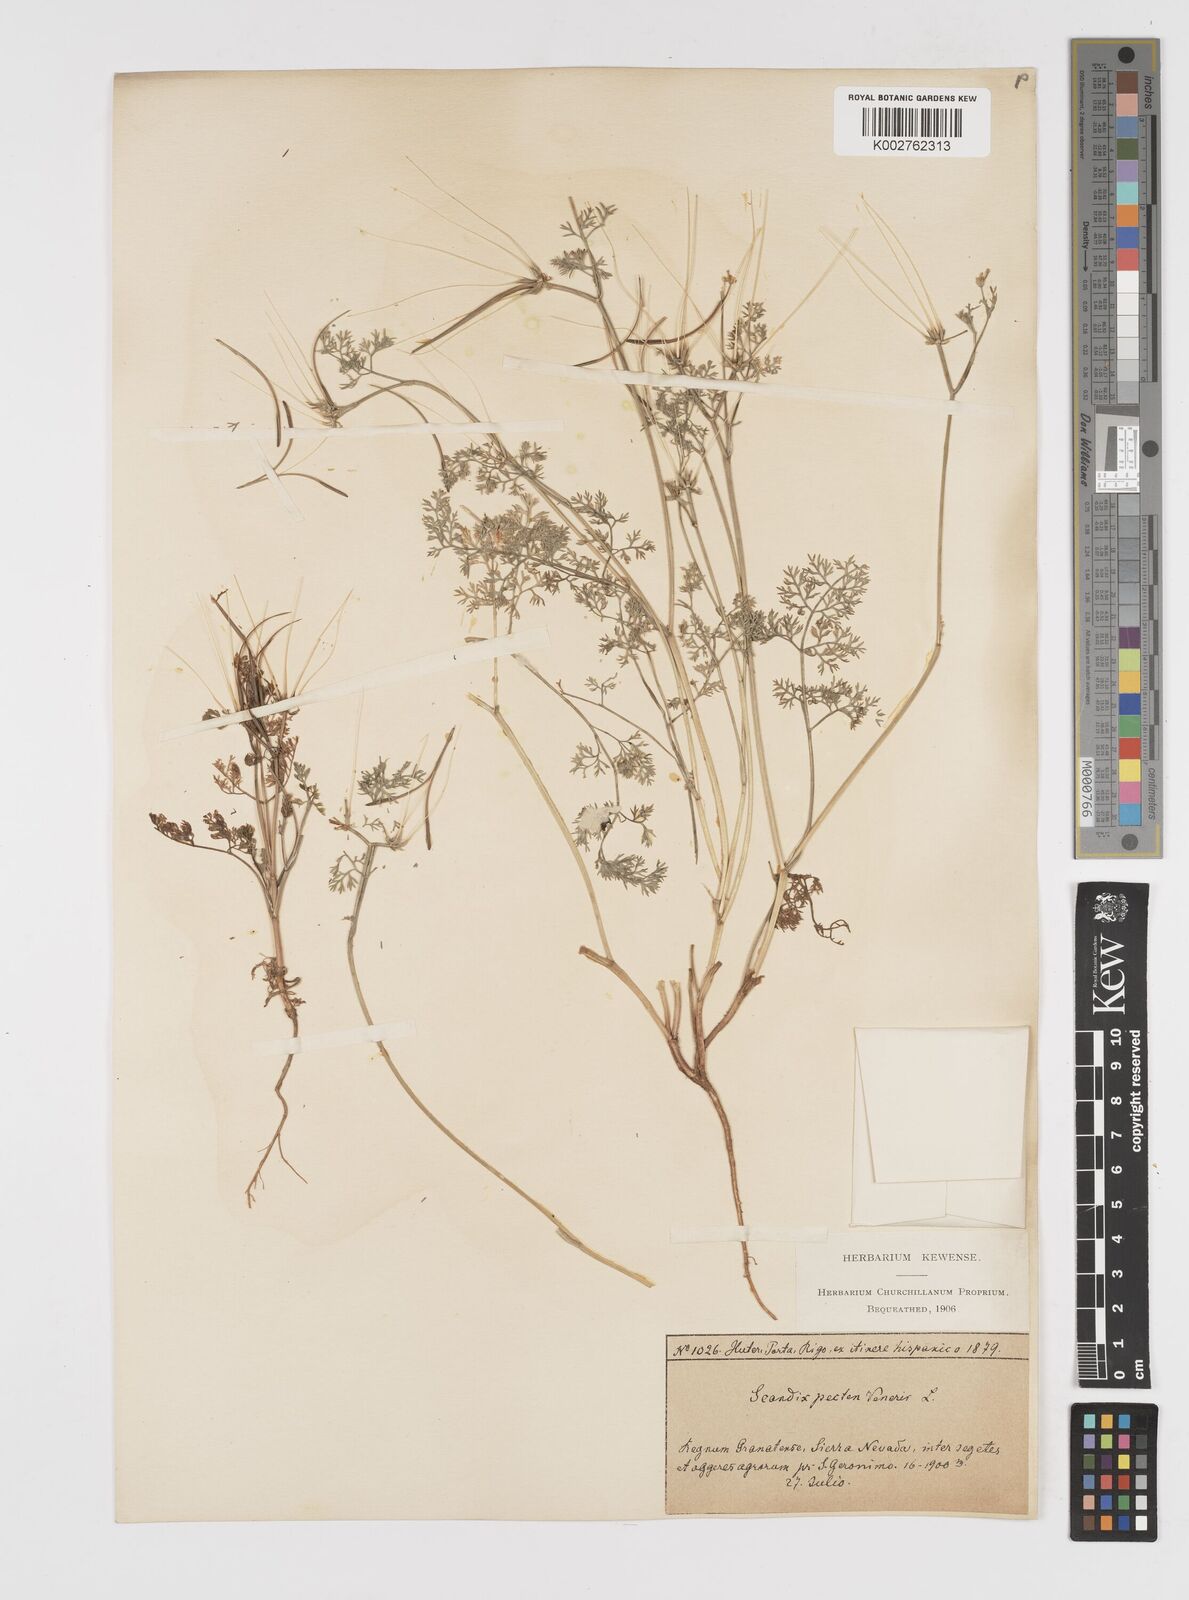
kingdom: Plantae
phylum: Tracheophyta
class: Magnoliopsida
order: Apiales
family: Apiaceae
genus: Scandix
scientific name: Scandix pecten-veneris
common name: Shepherd's-needle
